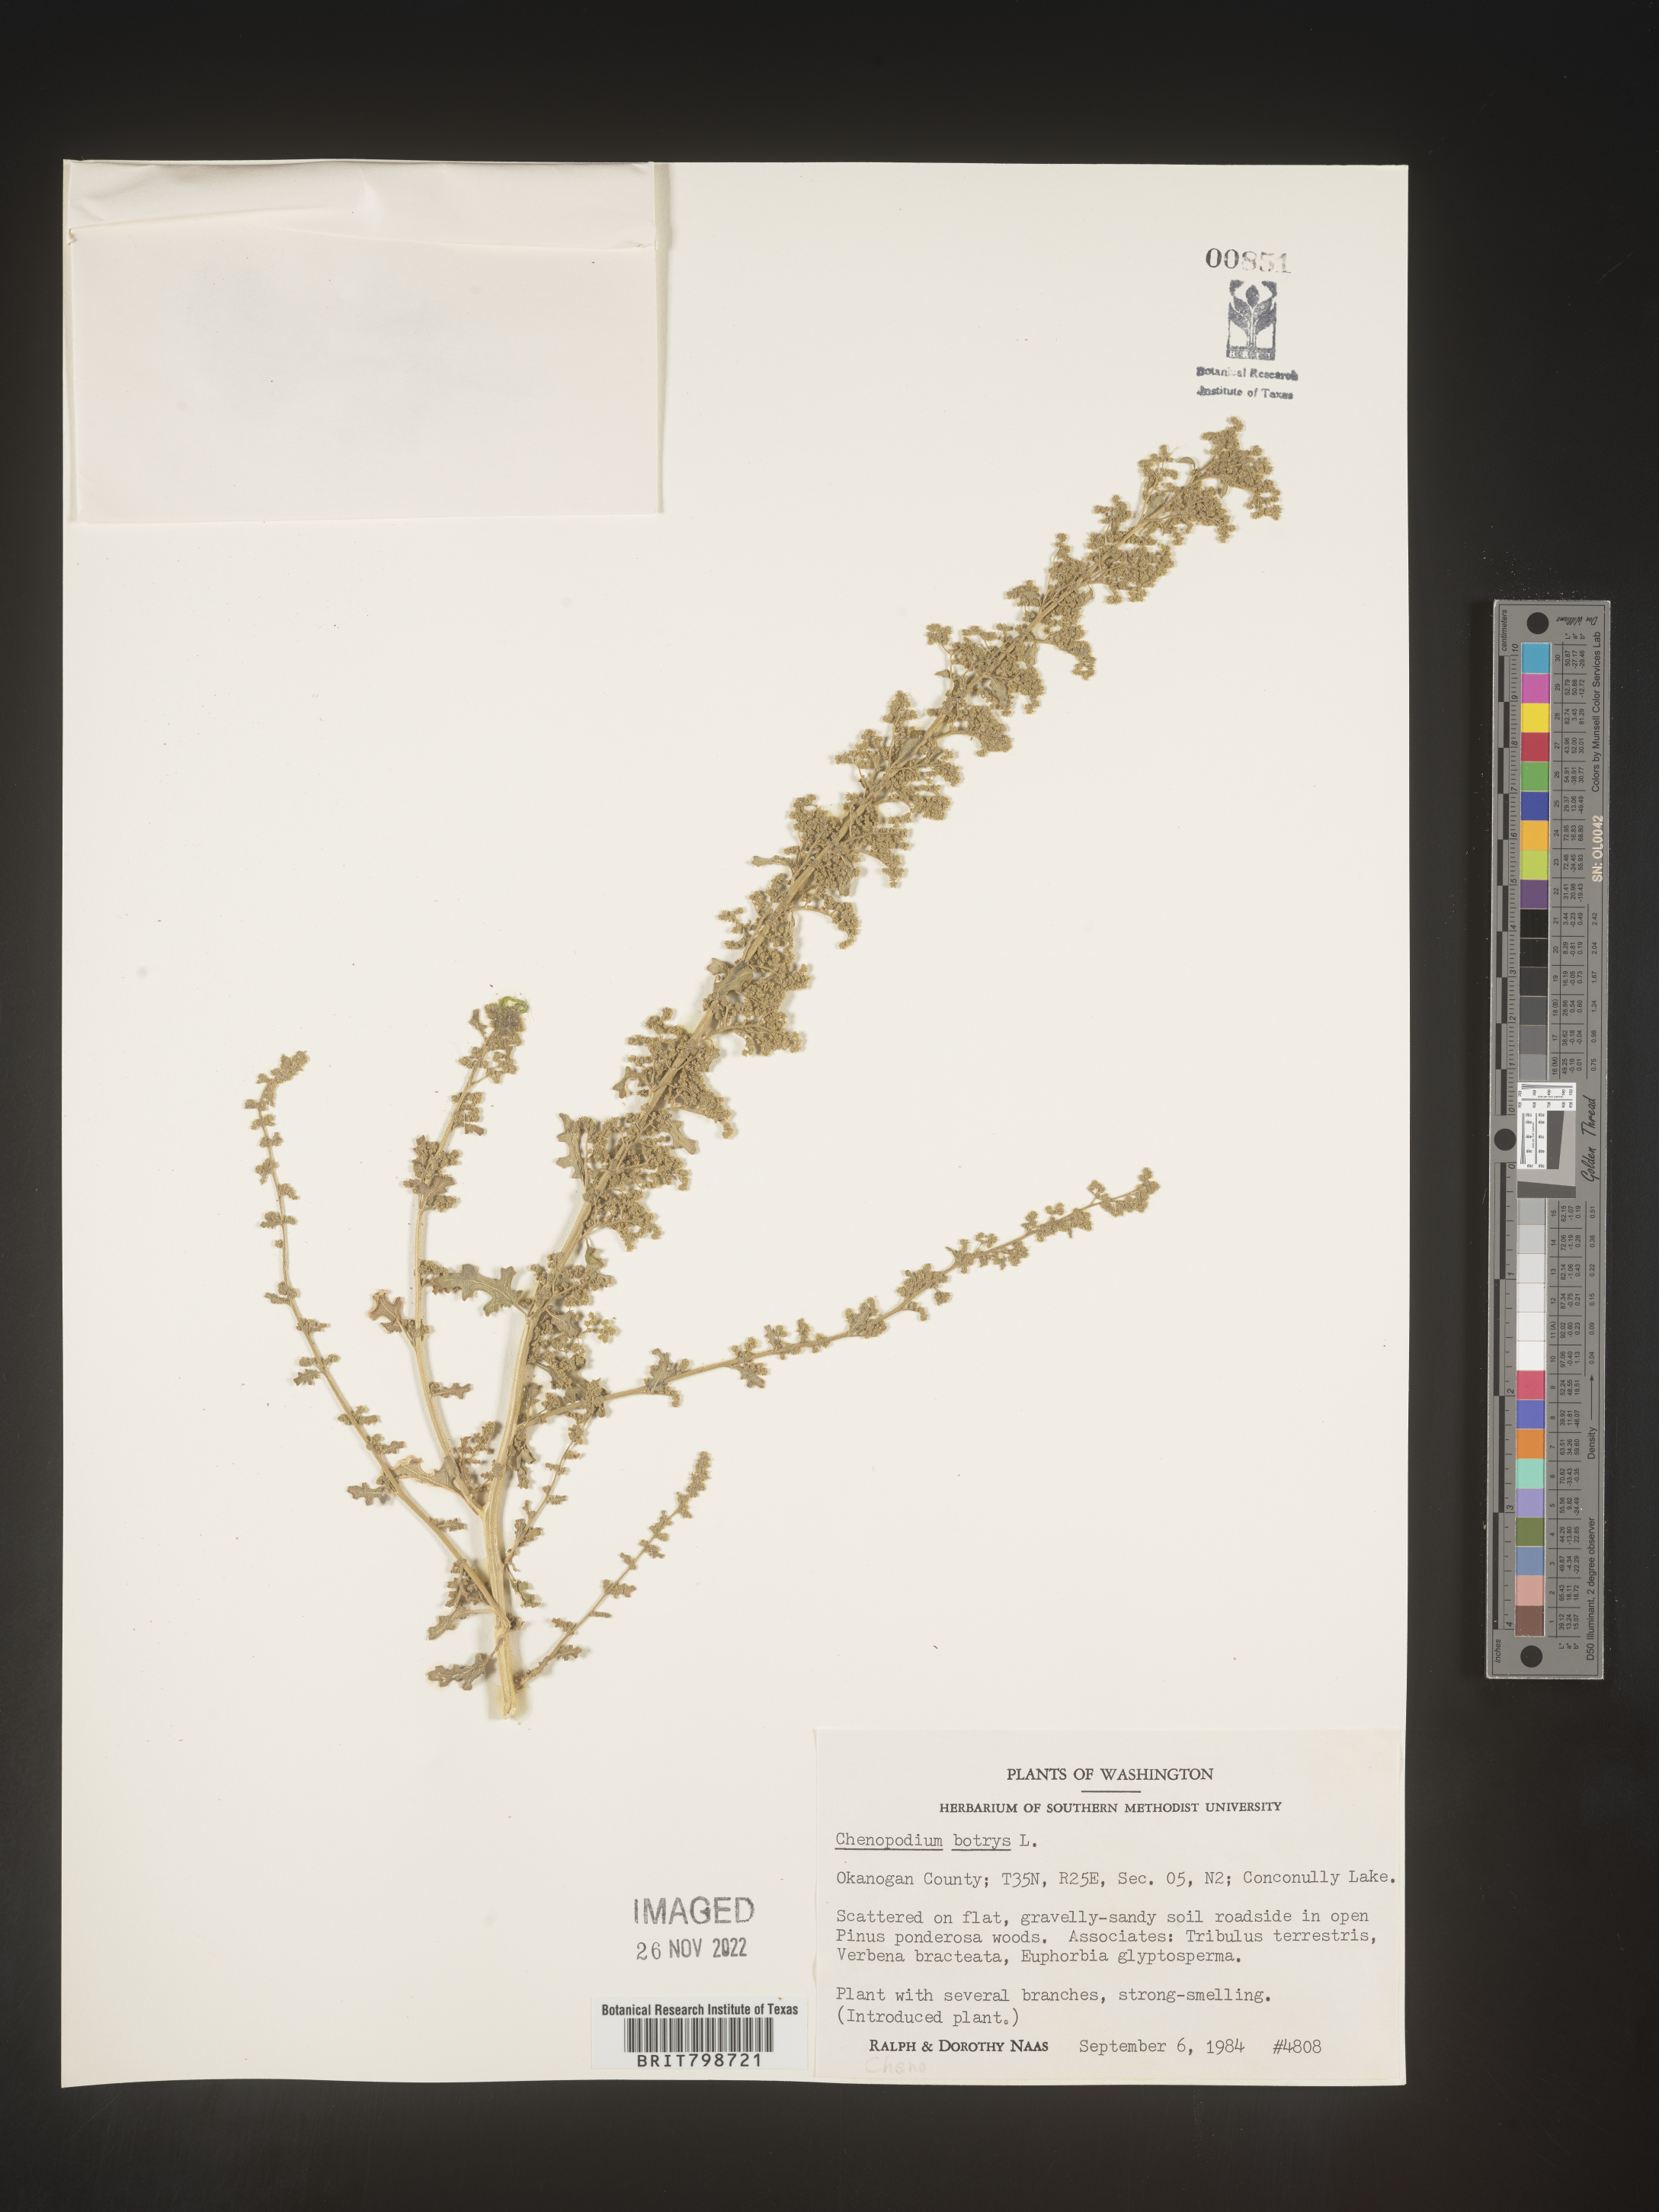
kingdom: Plantae
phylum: Tracheophyta
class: Magnoliopsida
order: Caryophyllales
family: Amaranthaceae
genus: Dysphania
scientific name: Dysphania botrys
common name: Feather-geranium
